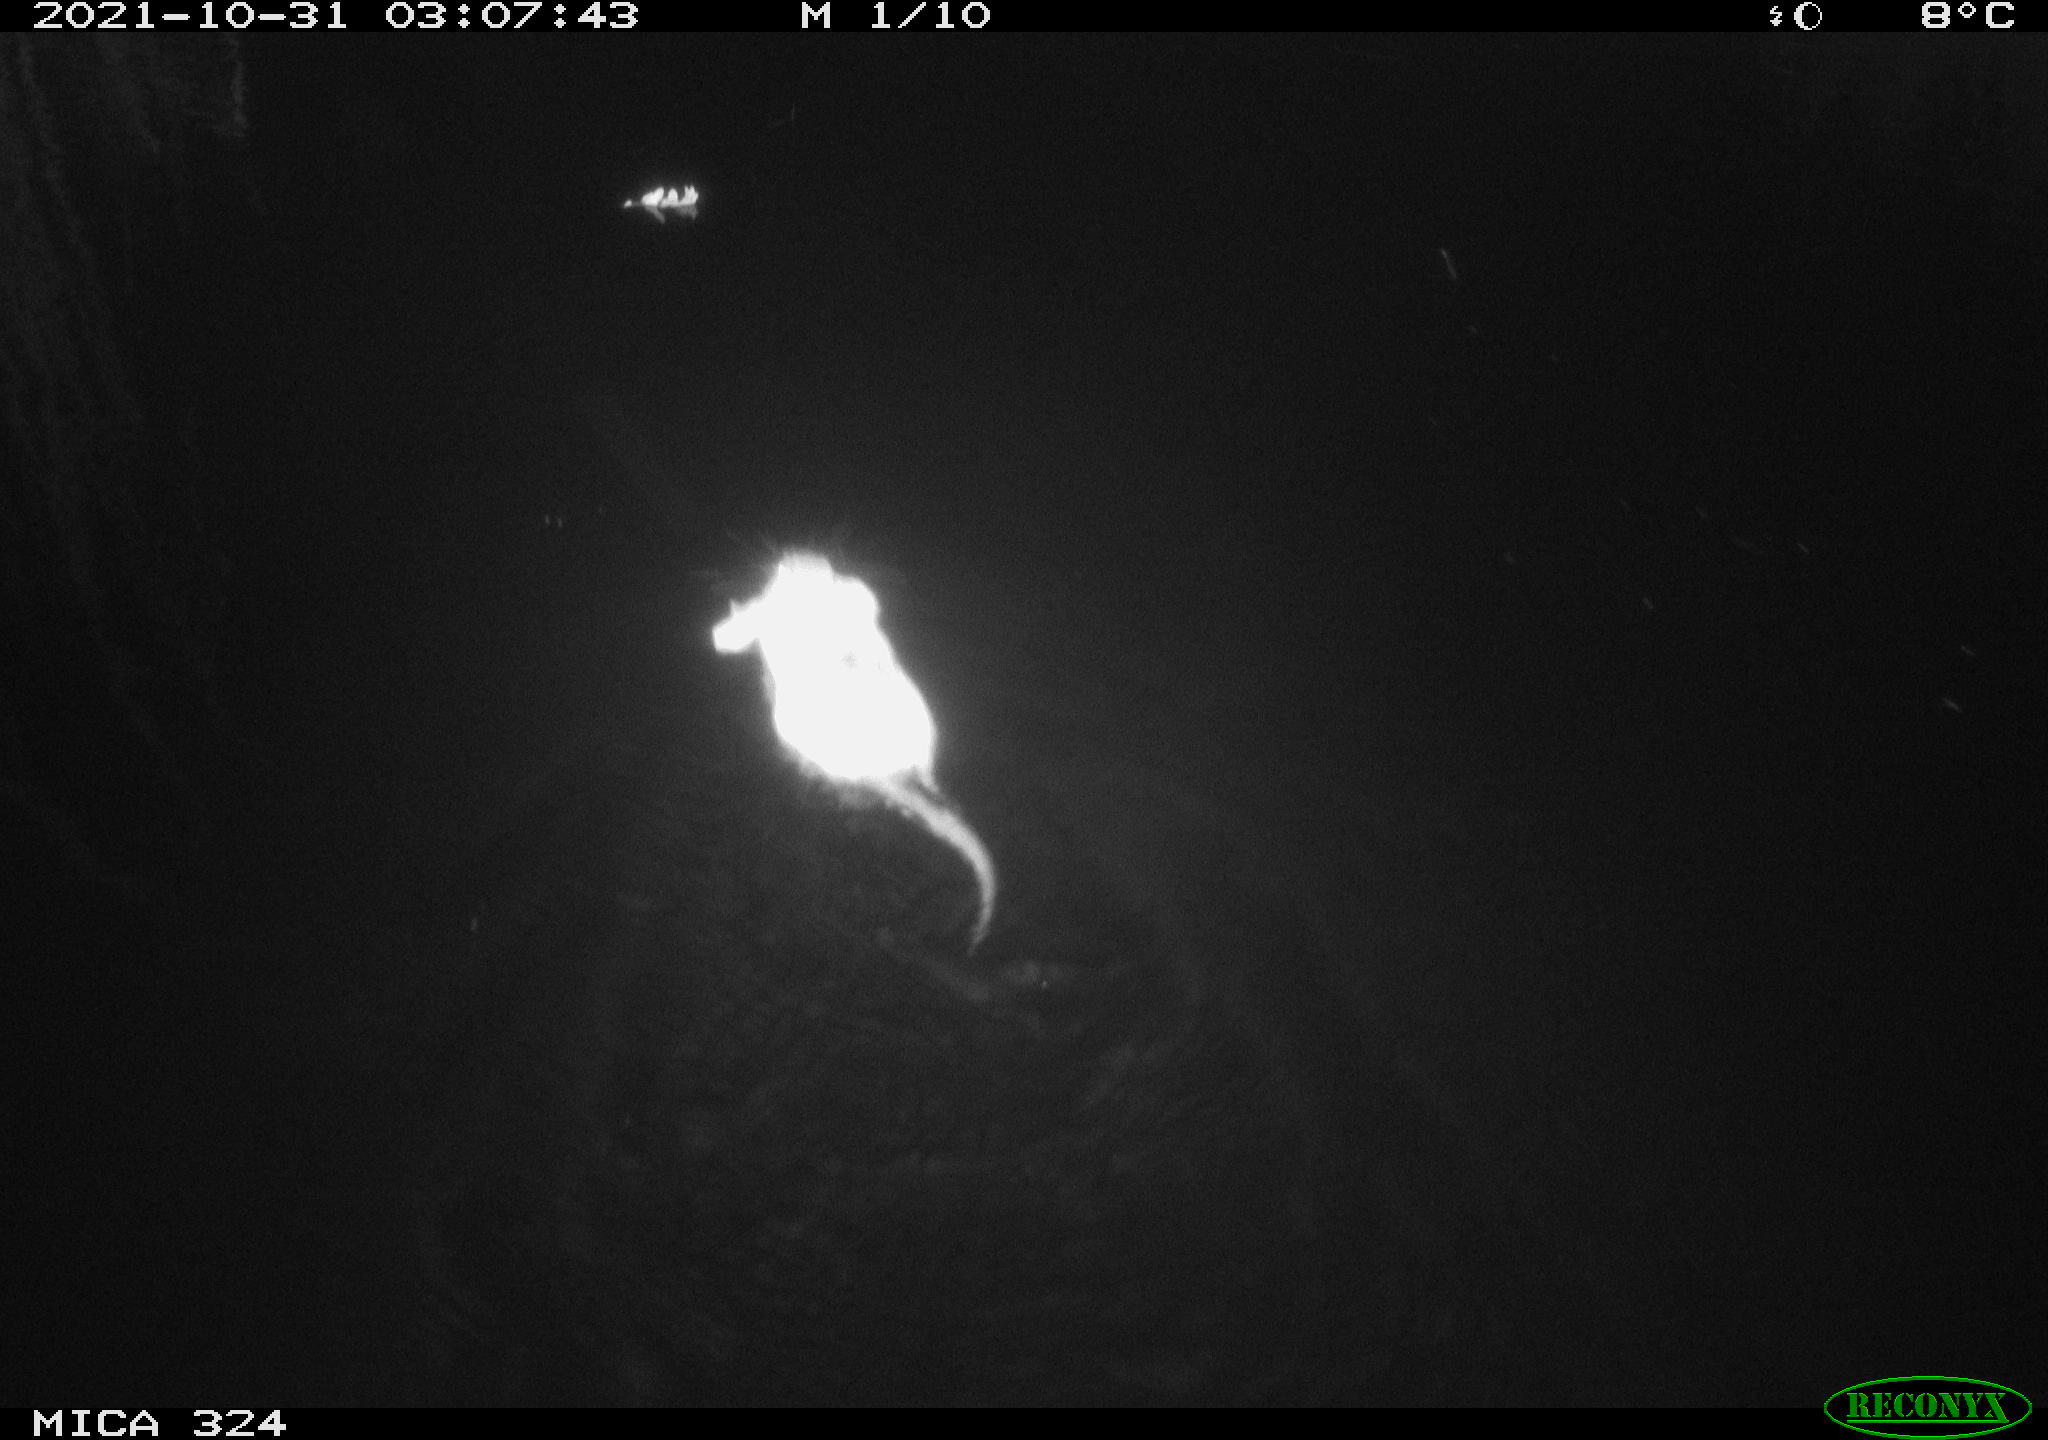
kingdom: Animalia
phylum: Chordata
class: Mammalia
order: Rodentia
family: Cricetidae
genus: Ondatra
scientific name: Ondatra zibethicus
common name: Muskrat
